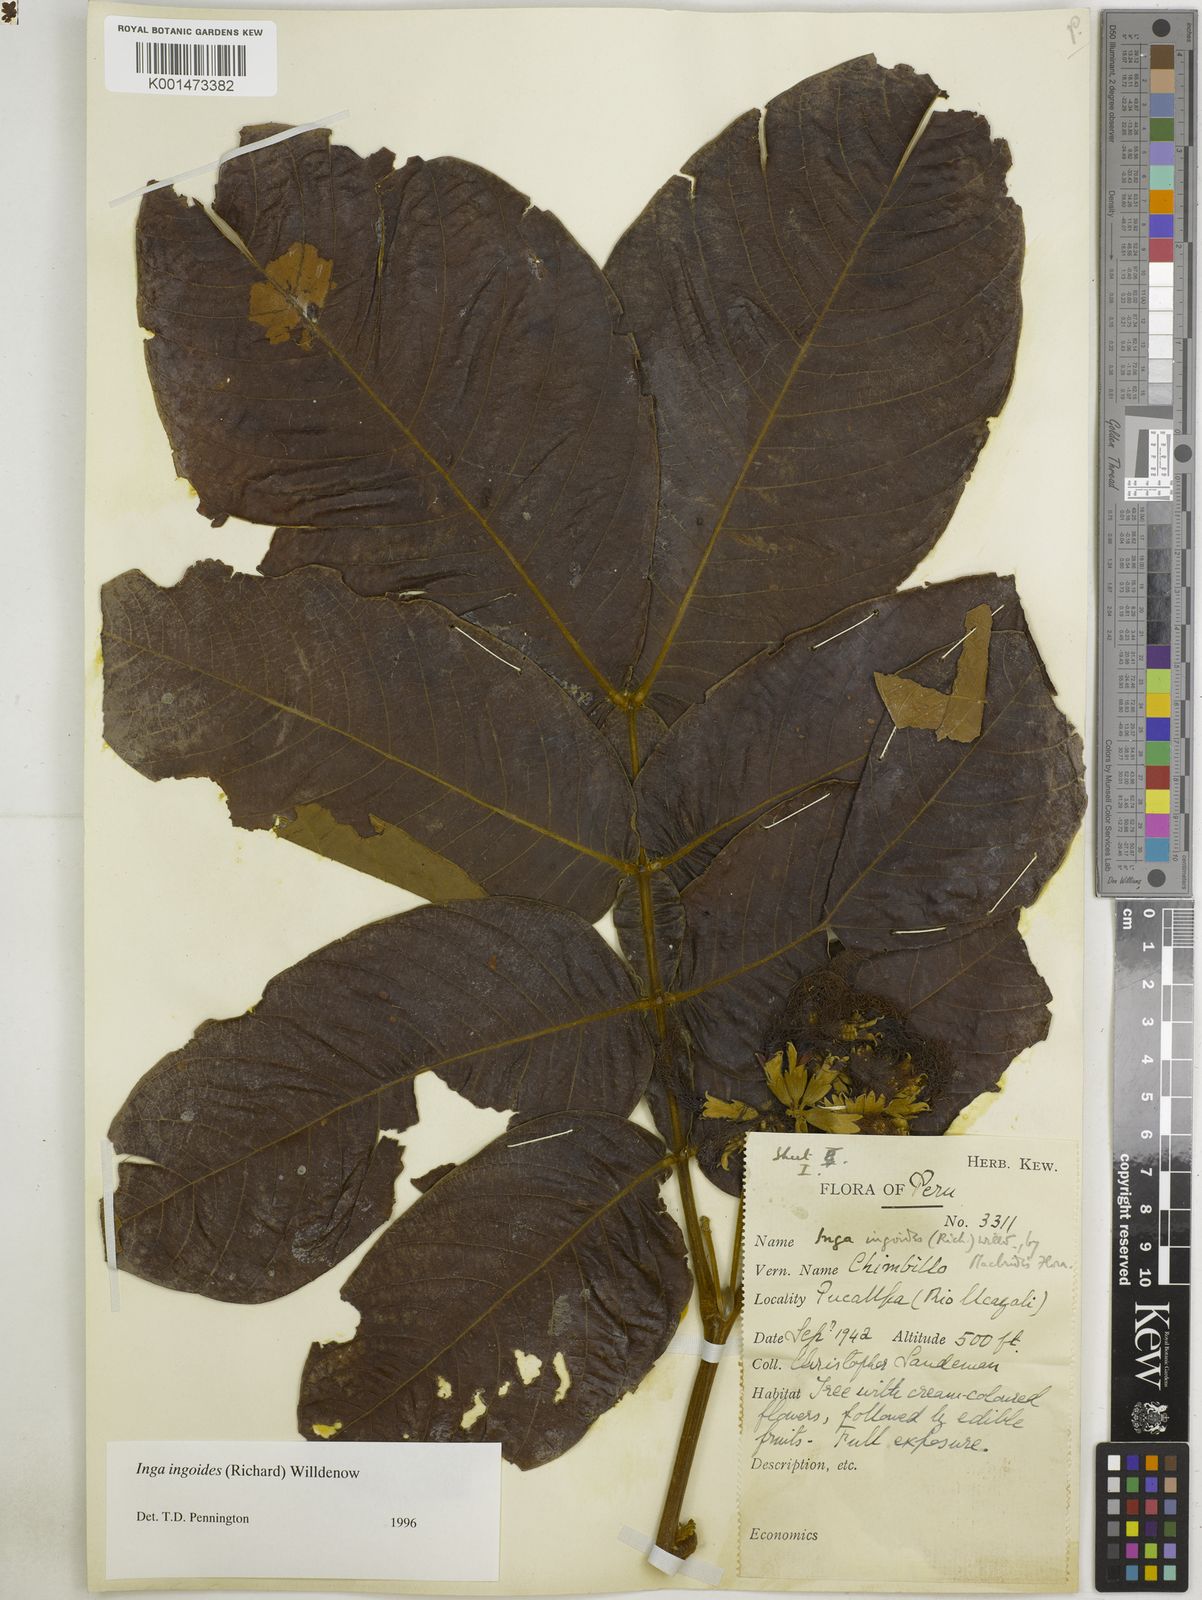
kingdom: Plantae
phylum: Tracheophyta
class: Magnoliopsida
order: Fabales
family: Fabaceae
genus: Inga
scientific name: Inga
